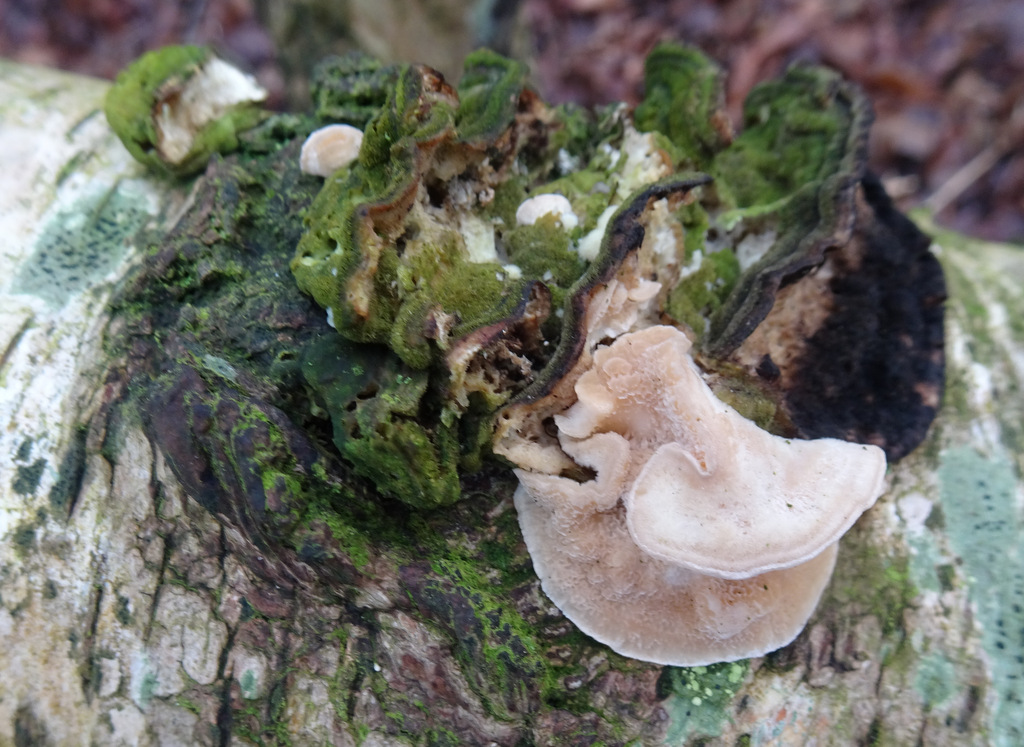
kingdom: Fungi
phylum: Basidiomycota
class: Agaricomycetes
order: Polyporales
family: Polyporaceae
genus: Trametes
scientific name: Trametes
